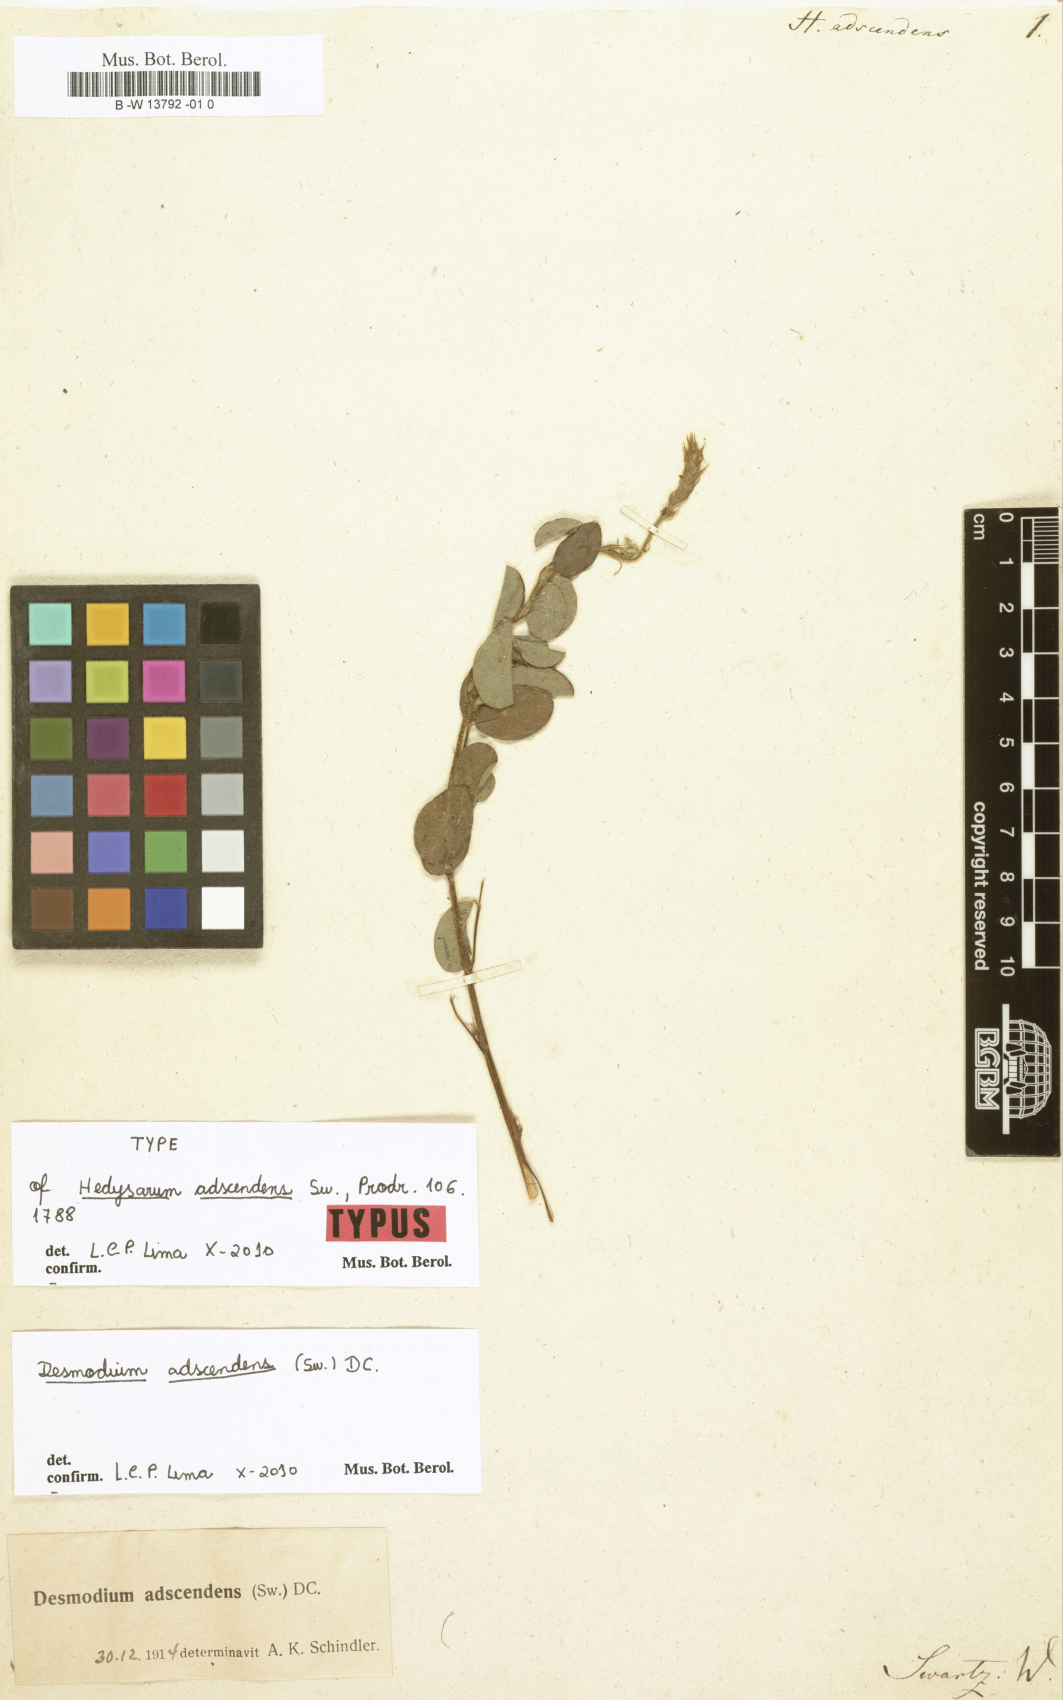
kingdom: Plantae
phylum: Tracheophyta
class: Magnoliopsida
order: Fabales
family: Fabaceae
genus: Grona
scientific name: Grona adscendens
